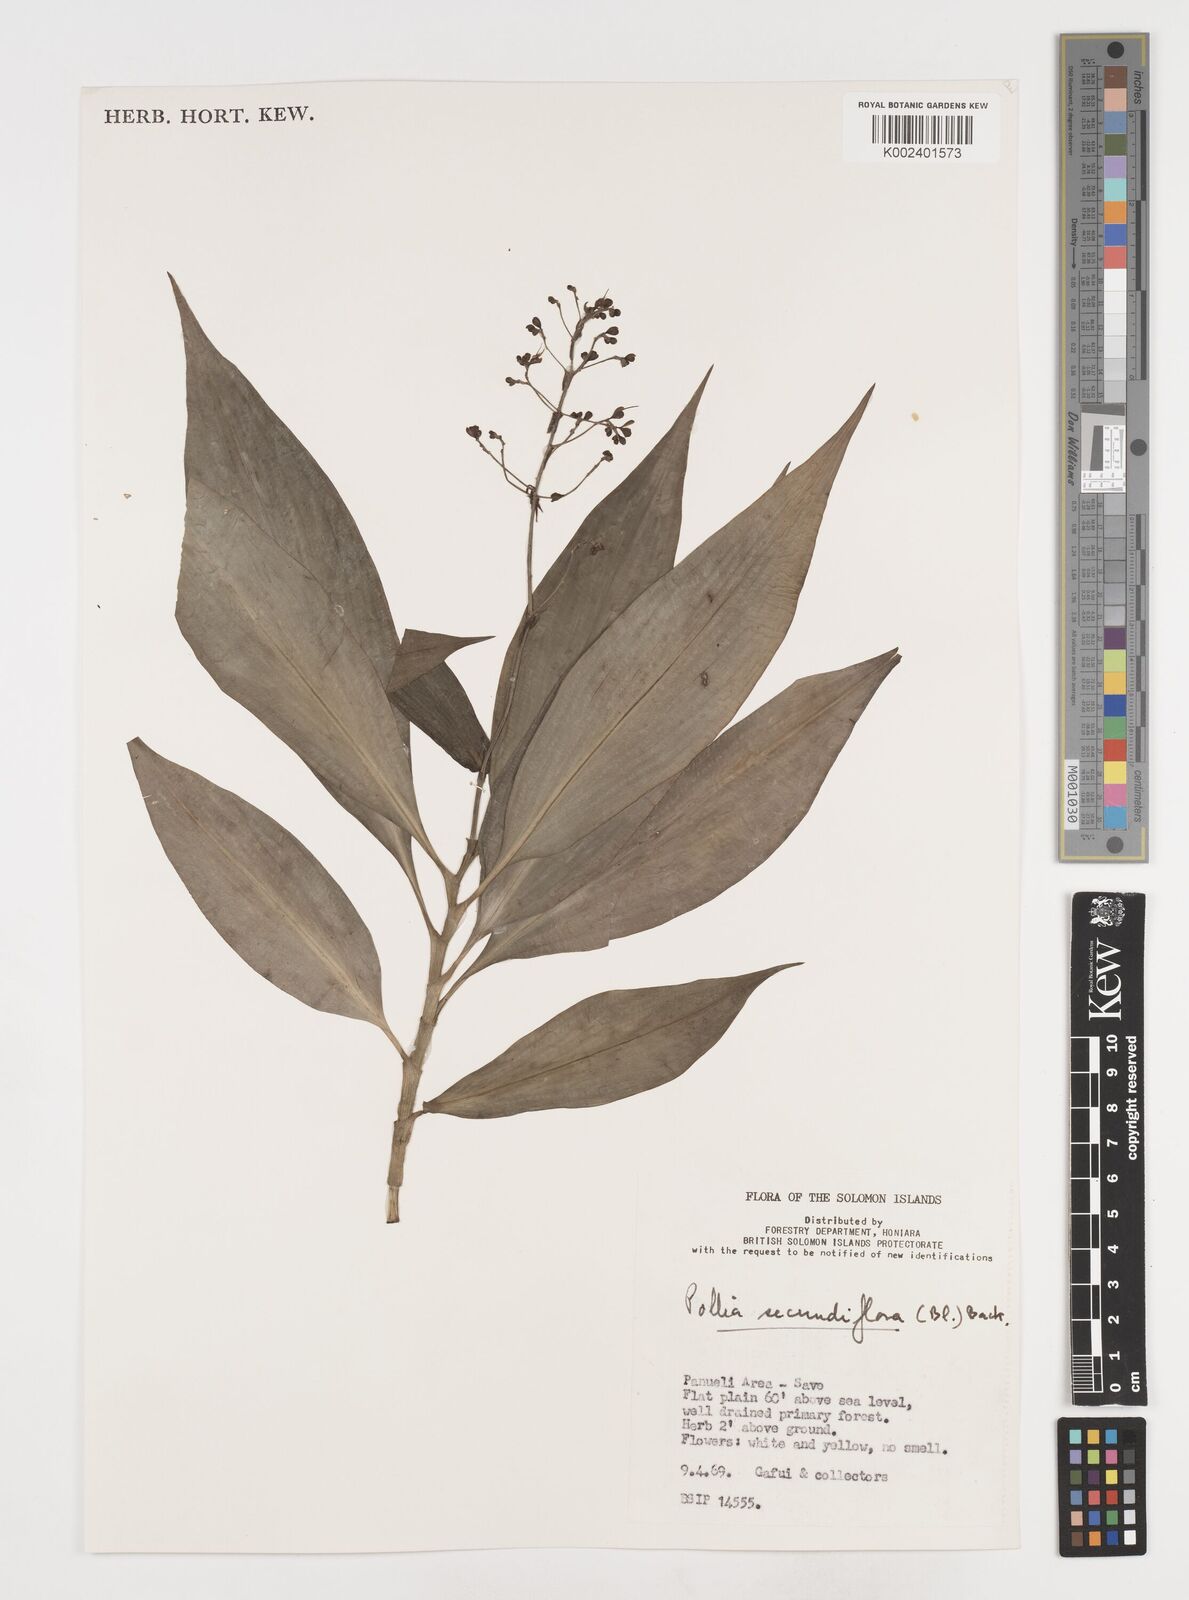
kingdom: Plantae
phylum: Tracheophyta
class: Liliopsida
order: Commelinales
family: Commelinaceae
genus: Pollia
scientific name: Pollia secundiflora
